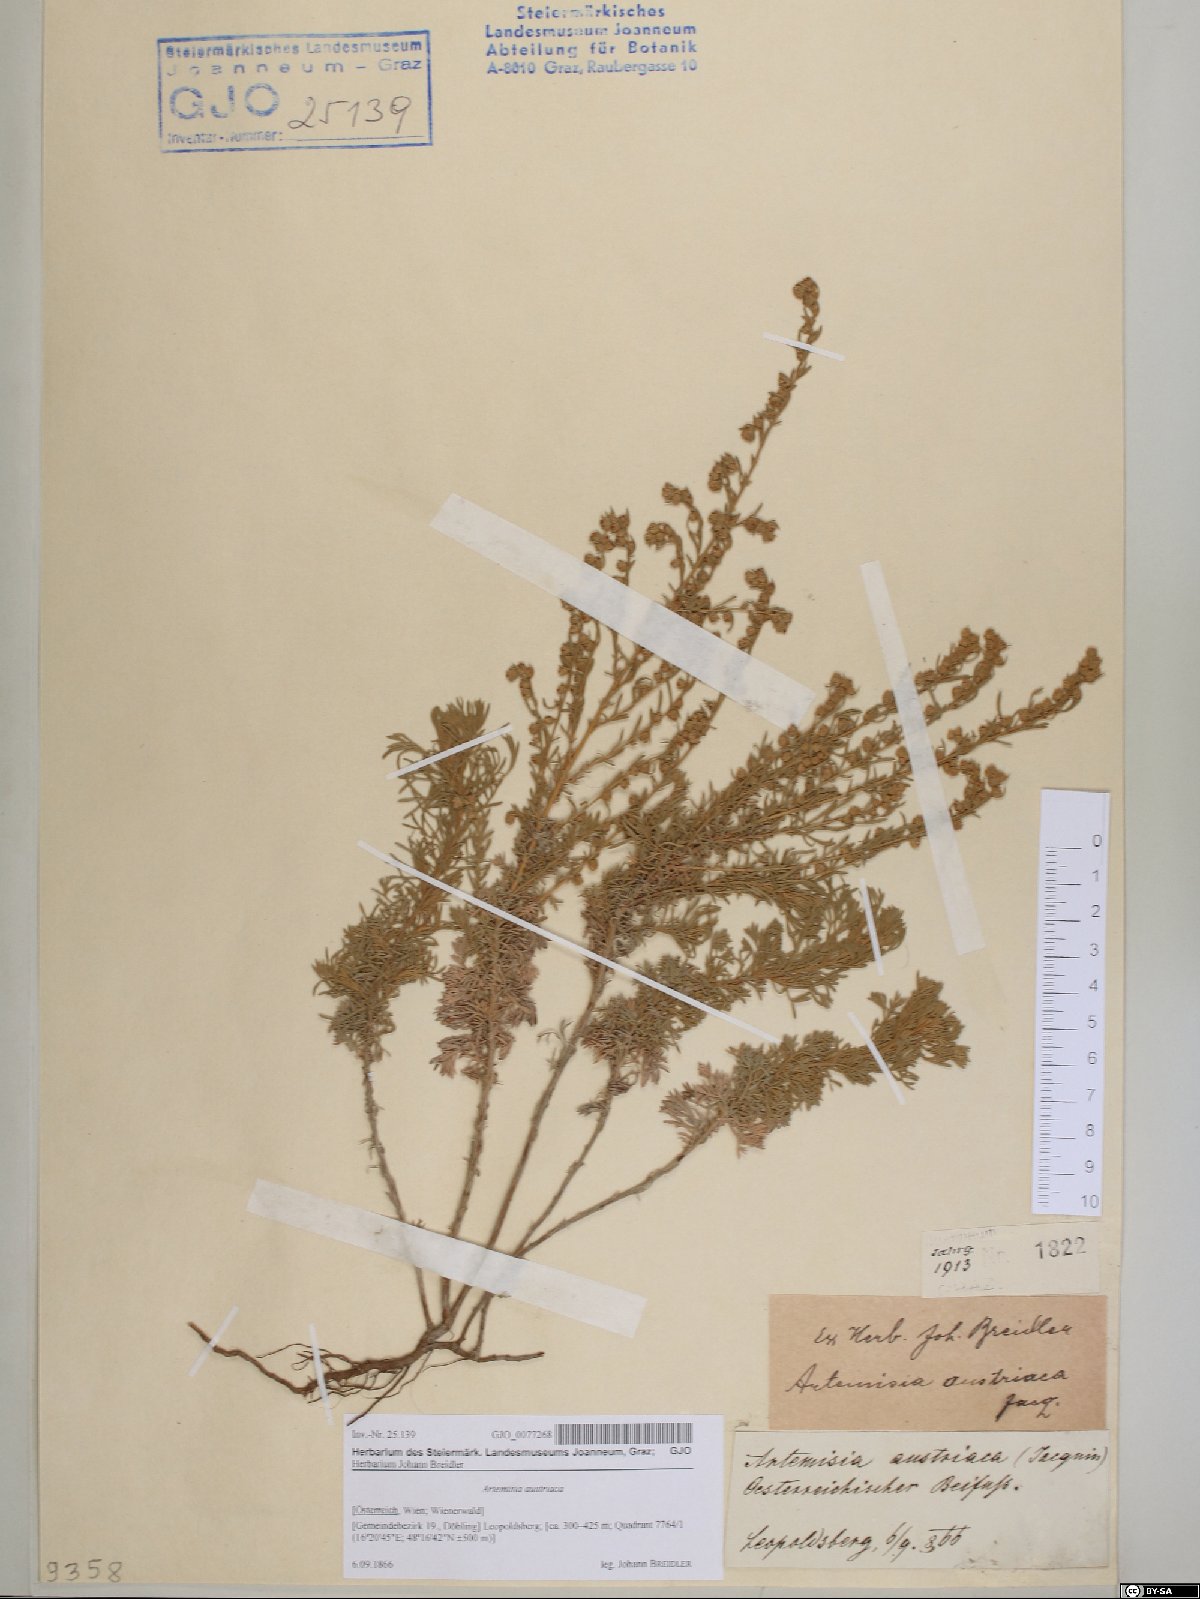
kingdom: Plantae
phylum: Tracheophyta
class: Magnoliopsida
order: Asterales
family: Asteraceae
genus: Artemisia
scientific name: Artemisia austriaca
